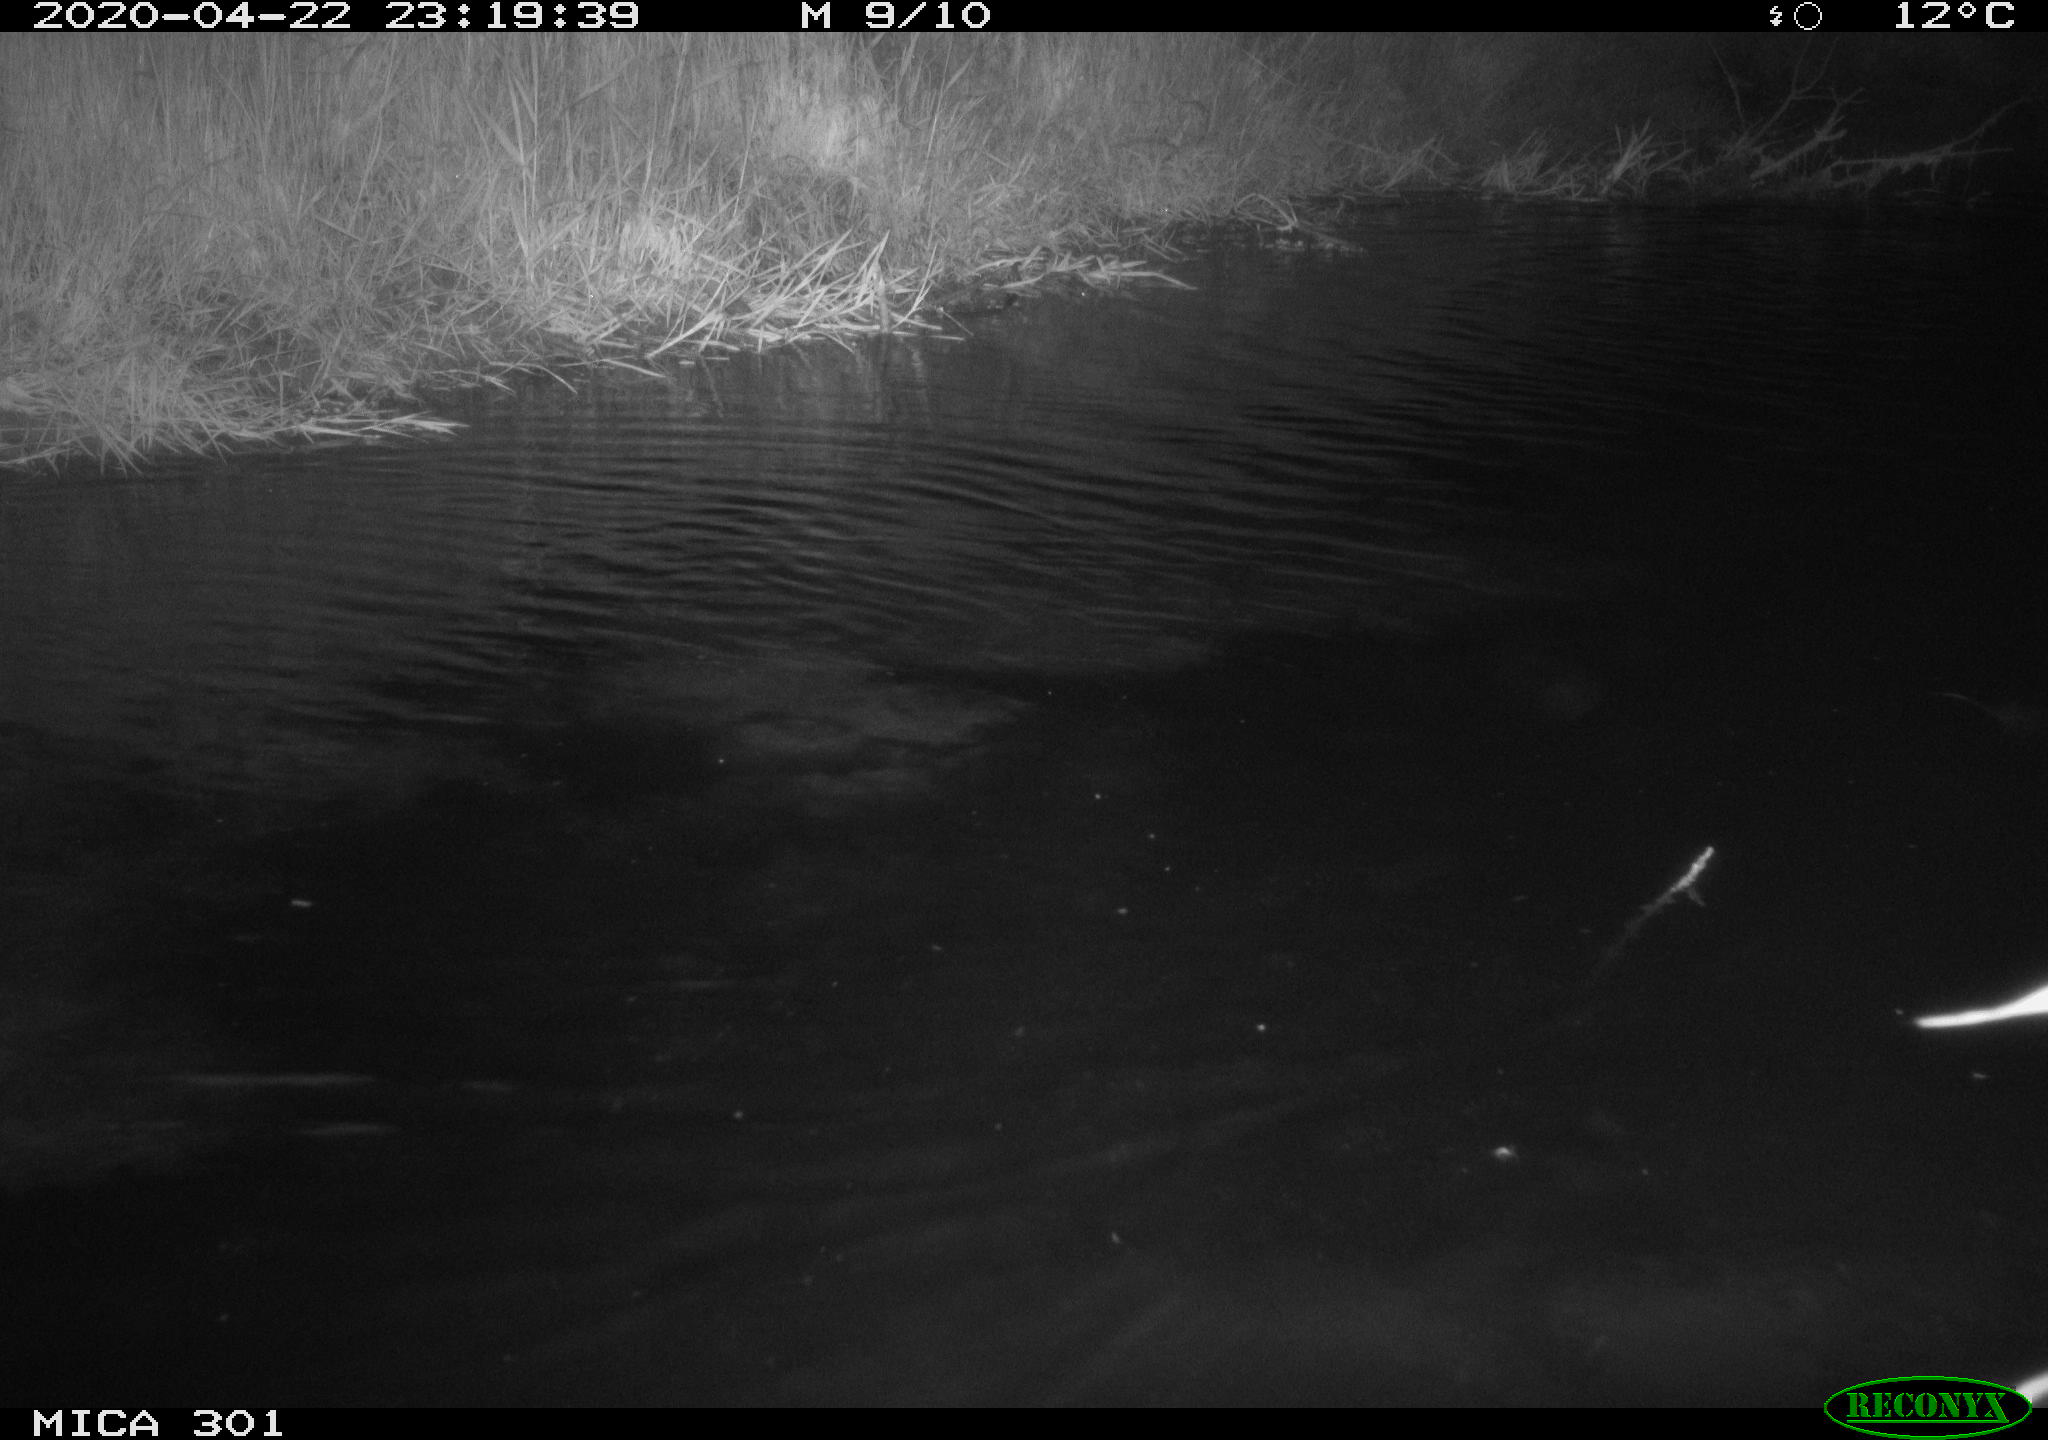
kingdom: Animalia
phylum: Chordata
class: Mammalia
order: Rodentia
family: Castoridae
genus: Castor
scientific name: Castor fiber
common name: Eurasian beaver
